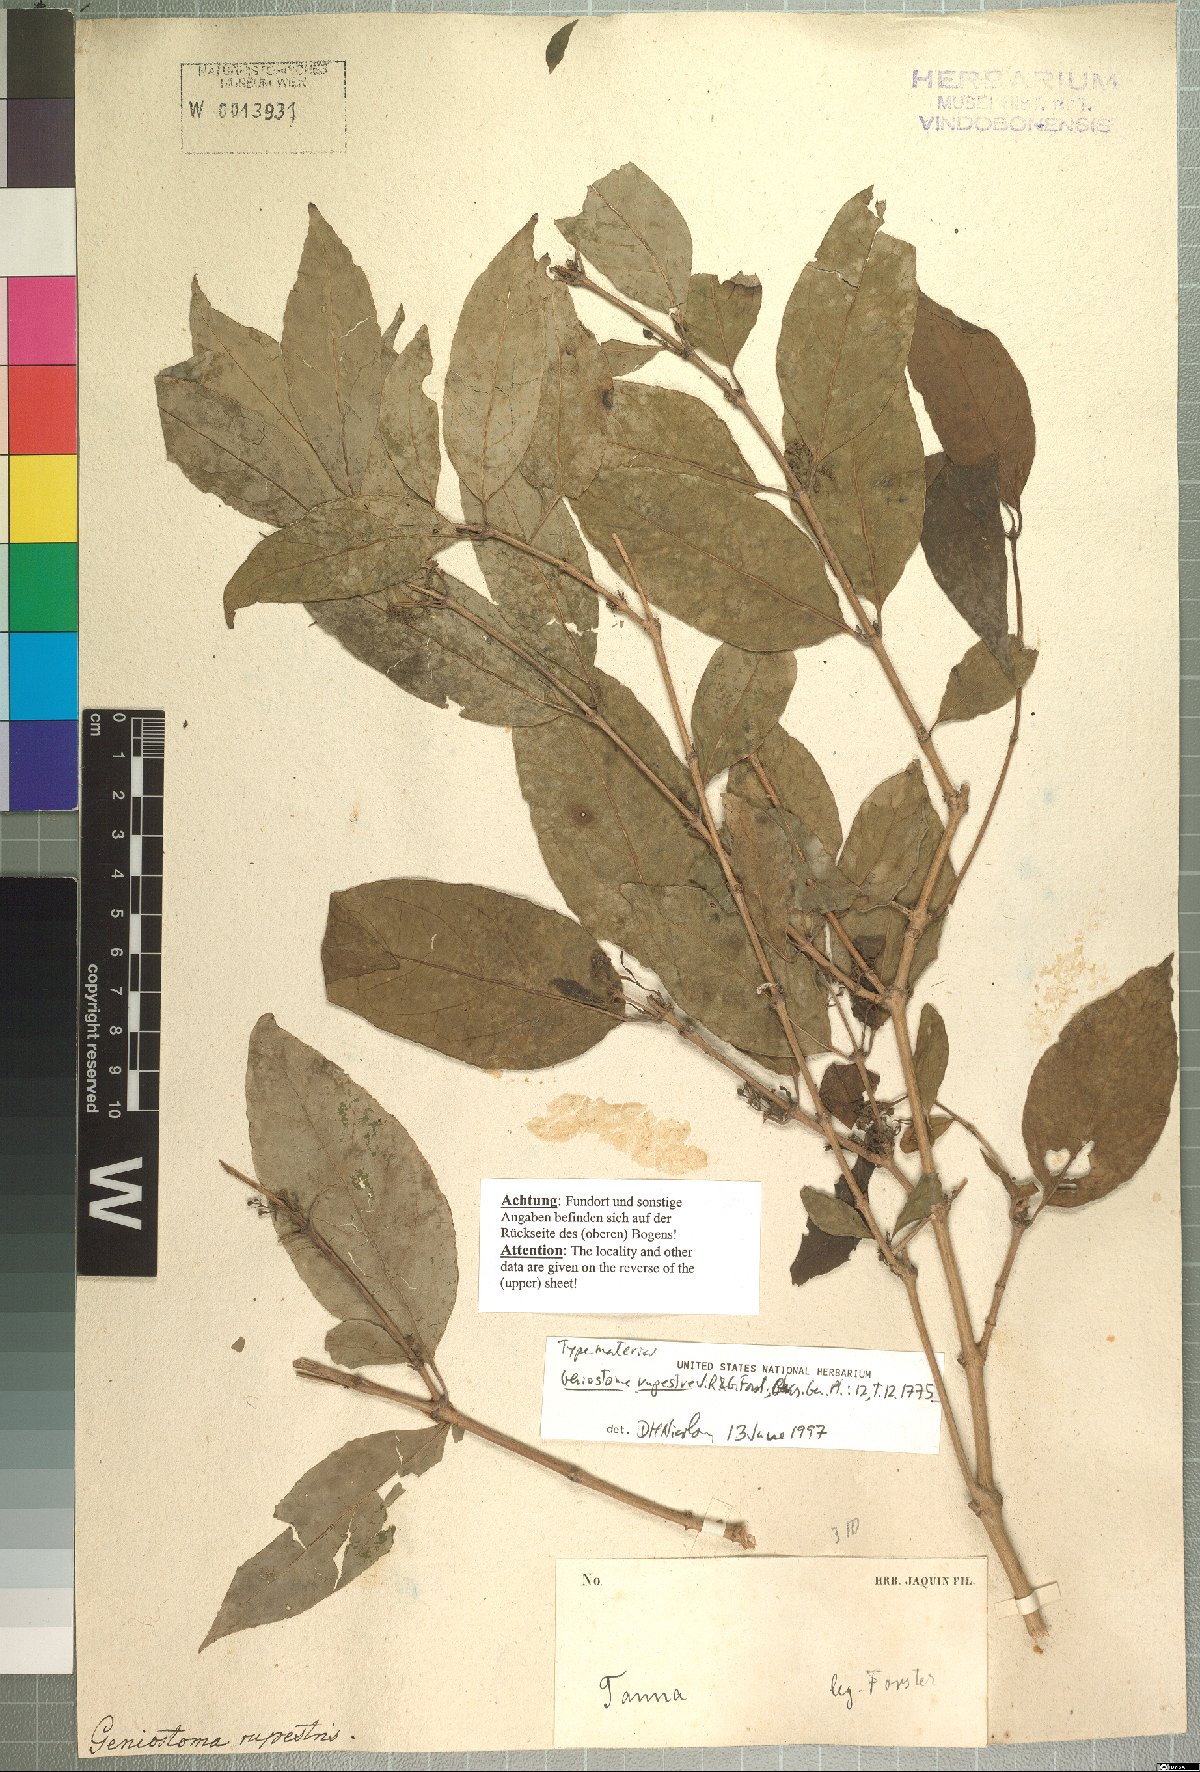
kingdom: Plantae
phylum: Tracheophyta
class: Magnoliopsida
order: Gentianales
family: Loganiaceae
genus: Geniostoma
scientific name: Geniostoma rupestre
